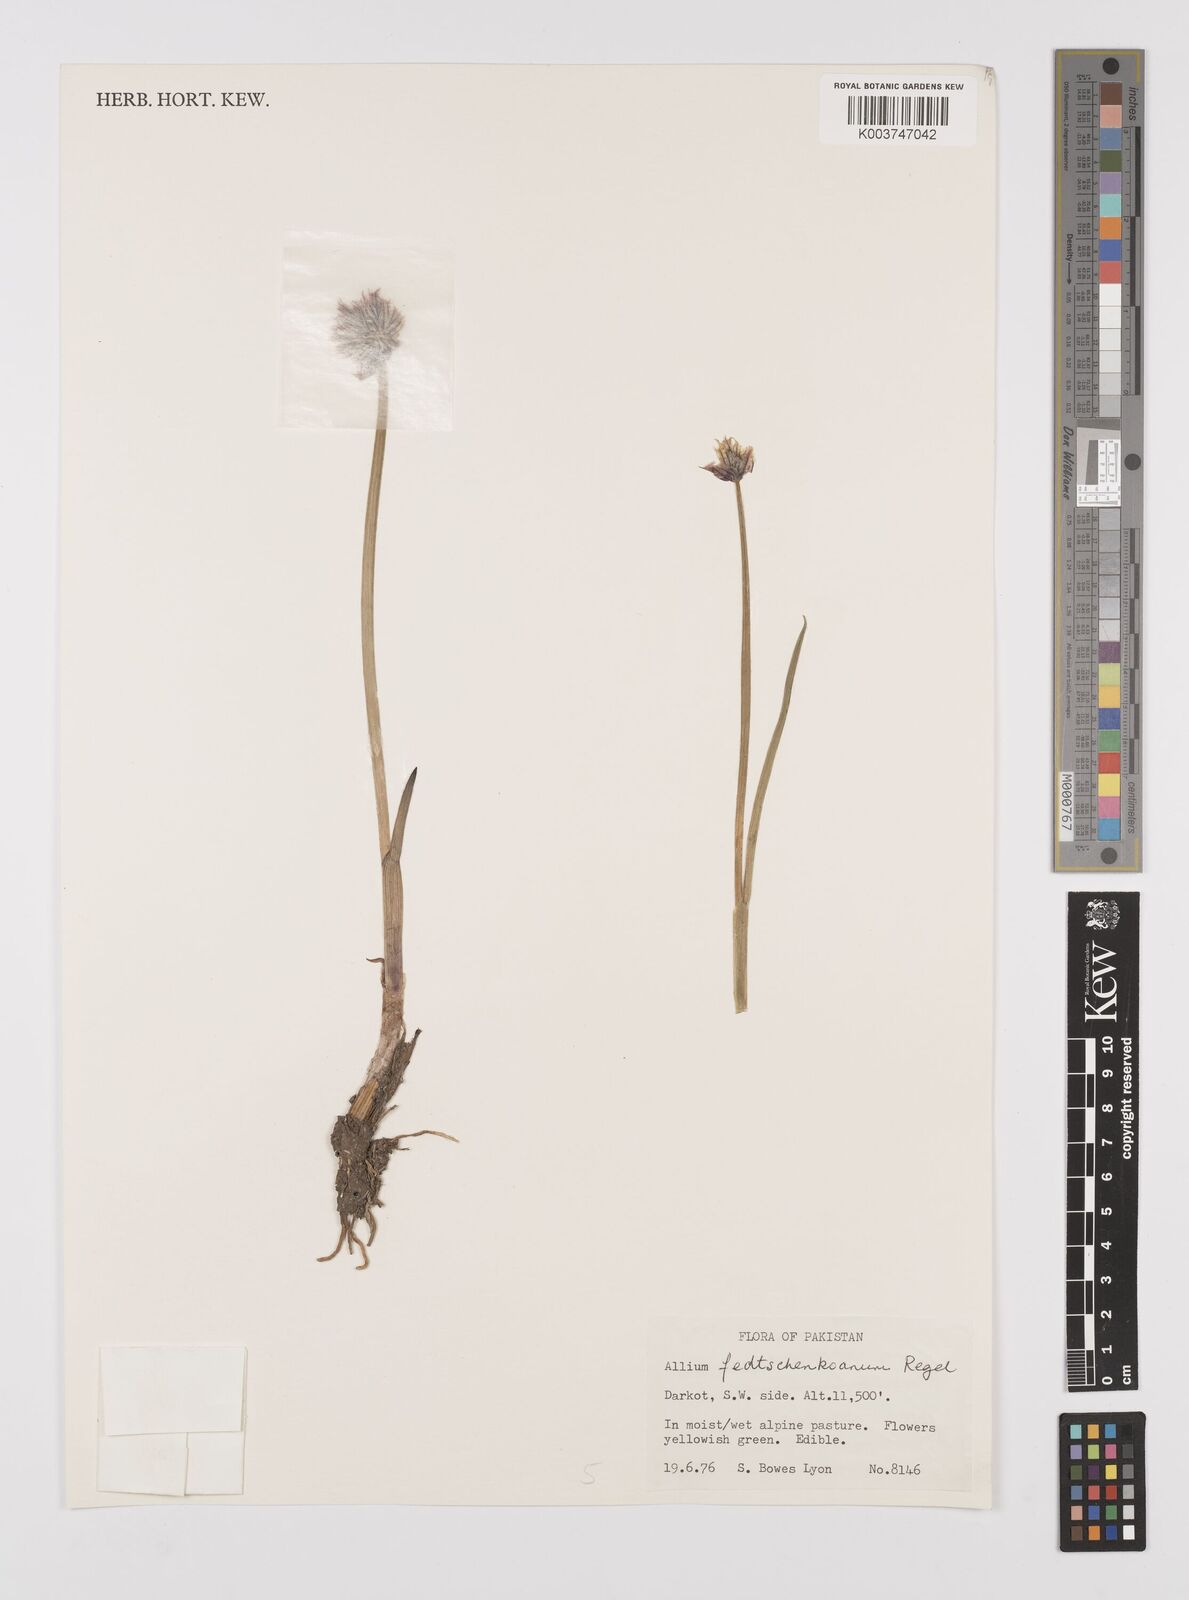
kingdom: Plantae
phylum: Tracheophyta
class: Liliopsida
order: Asparagales
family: Amaryllidaceae
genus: Allium
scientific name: Allium fedtschenkoi
